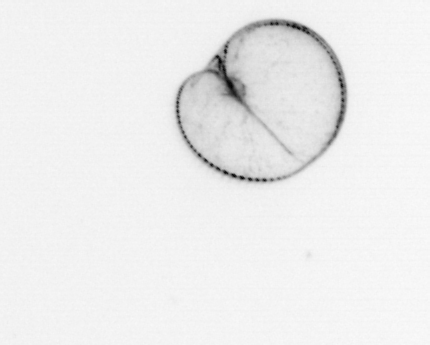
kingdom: Chromista
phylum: Myzozoa
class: Dinophyceae
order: Noctilucales
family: Noctilucaceae
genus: Noctiluca
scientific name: Noctiluca scintillans
